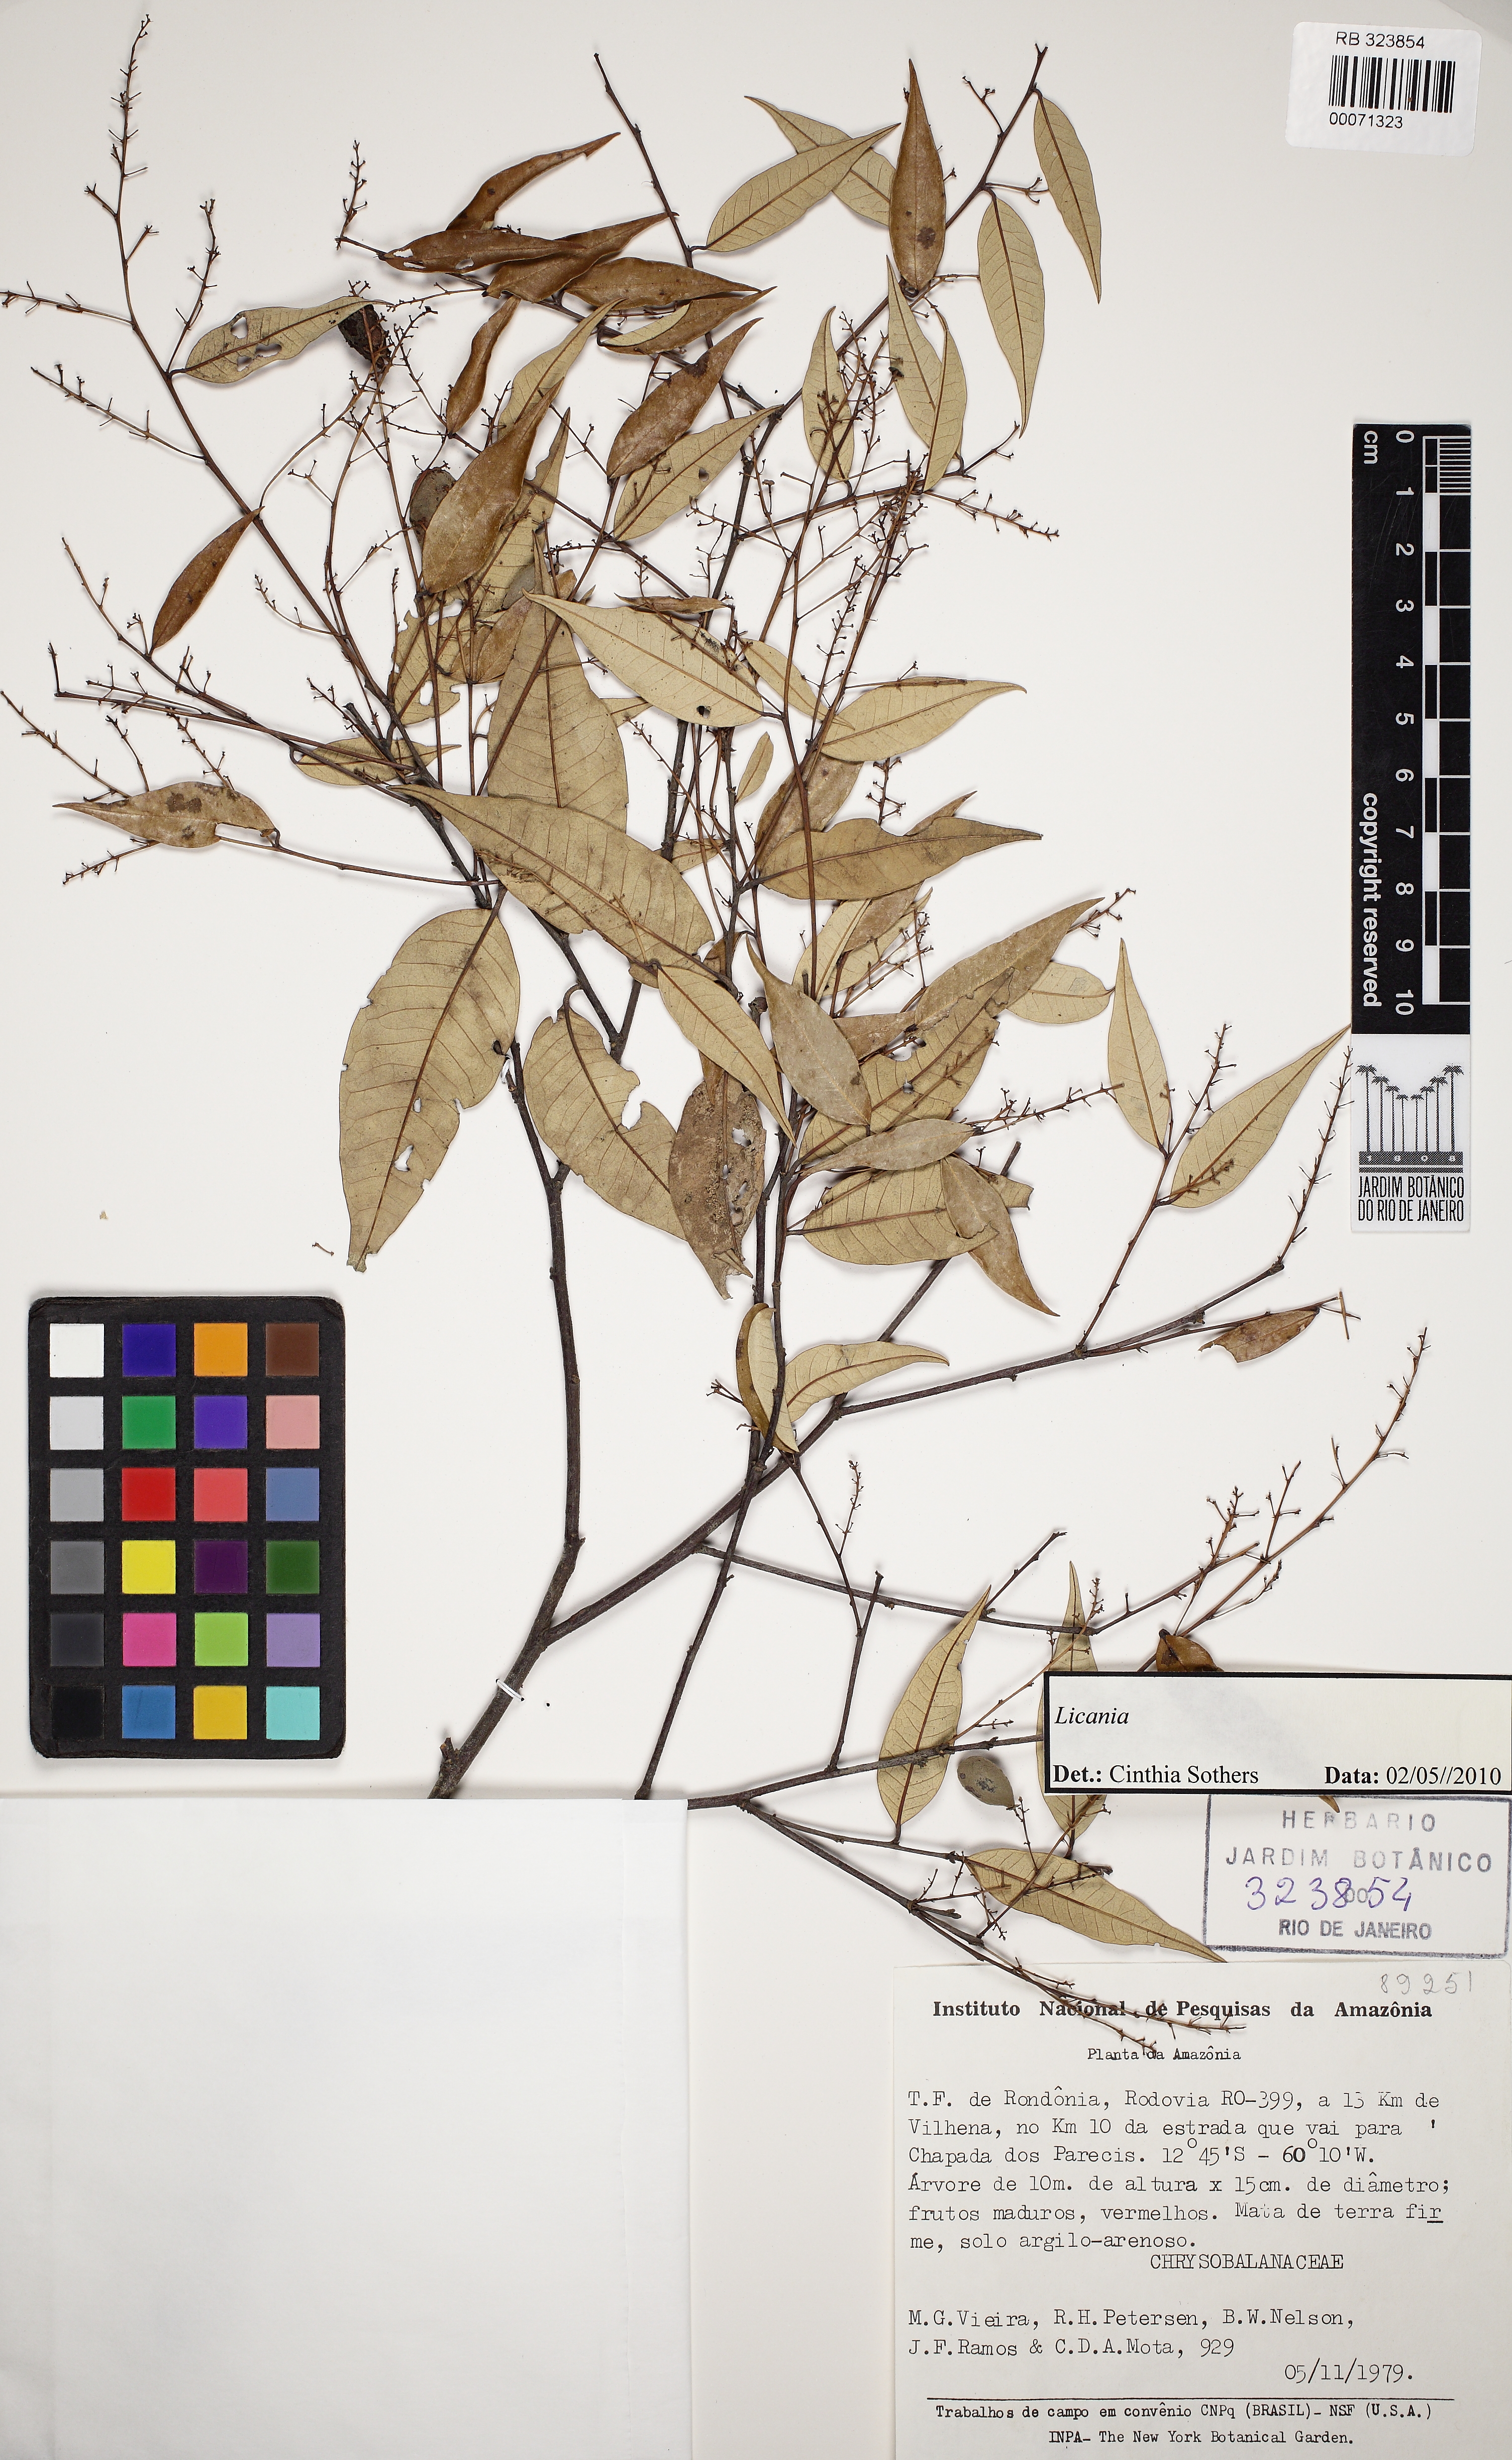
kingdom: Plantae
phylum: Tracheophyta
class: Magnoliopsida
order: Malpighiales
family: Chrysobalanaceae
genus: Licania
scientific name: Licania
